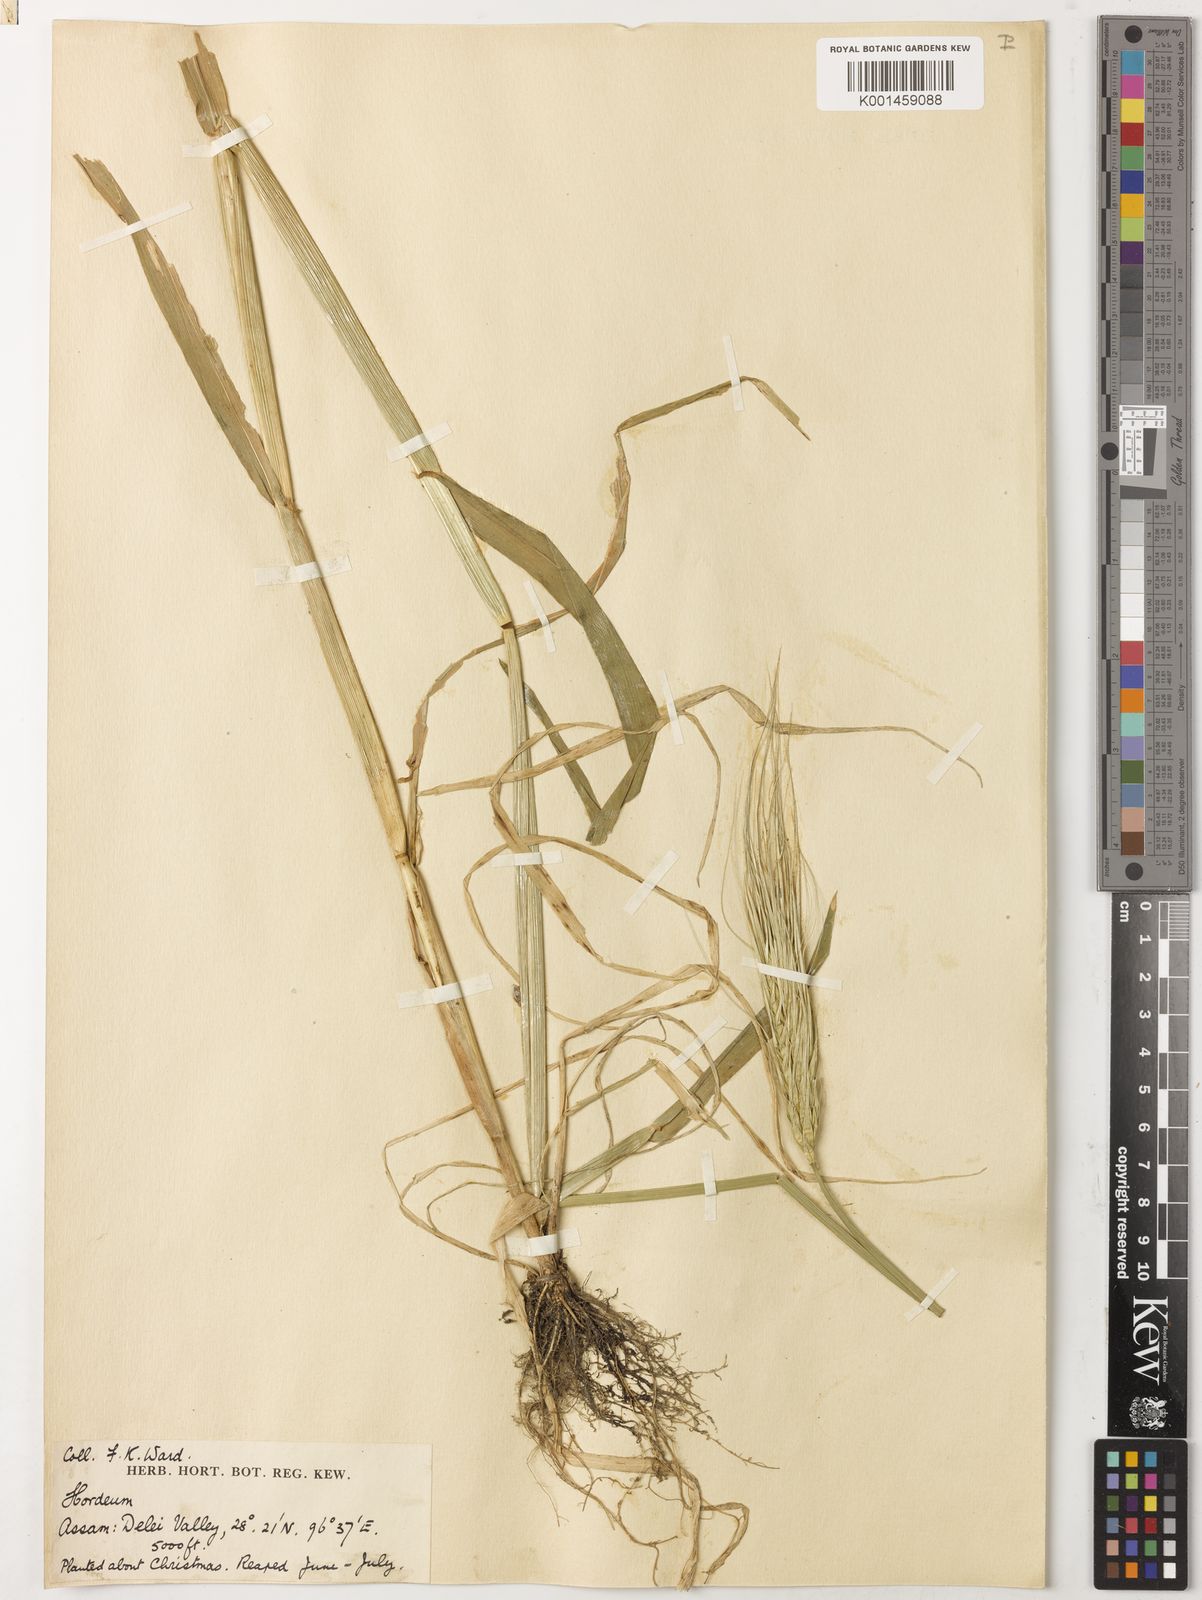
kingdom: Plantae
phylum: Tracheophyta
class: Liliopsida
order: Poales
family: Poaceae
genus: Hordeum
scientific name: Hordeum vulgare
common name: Common barley
